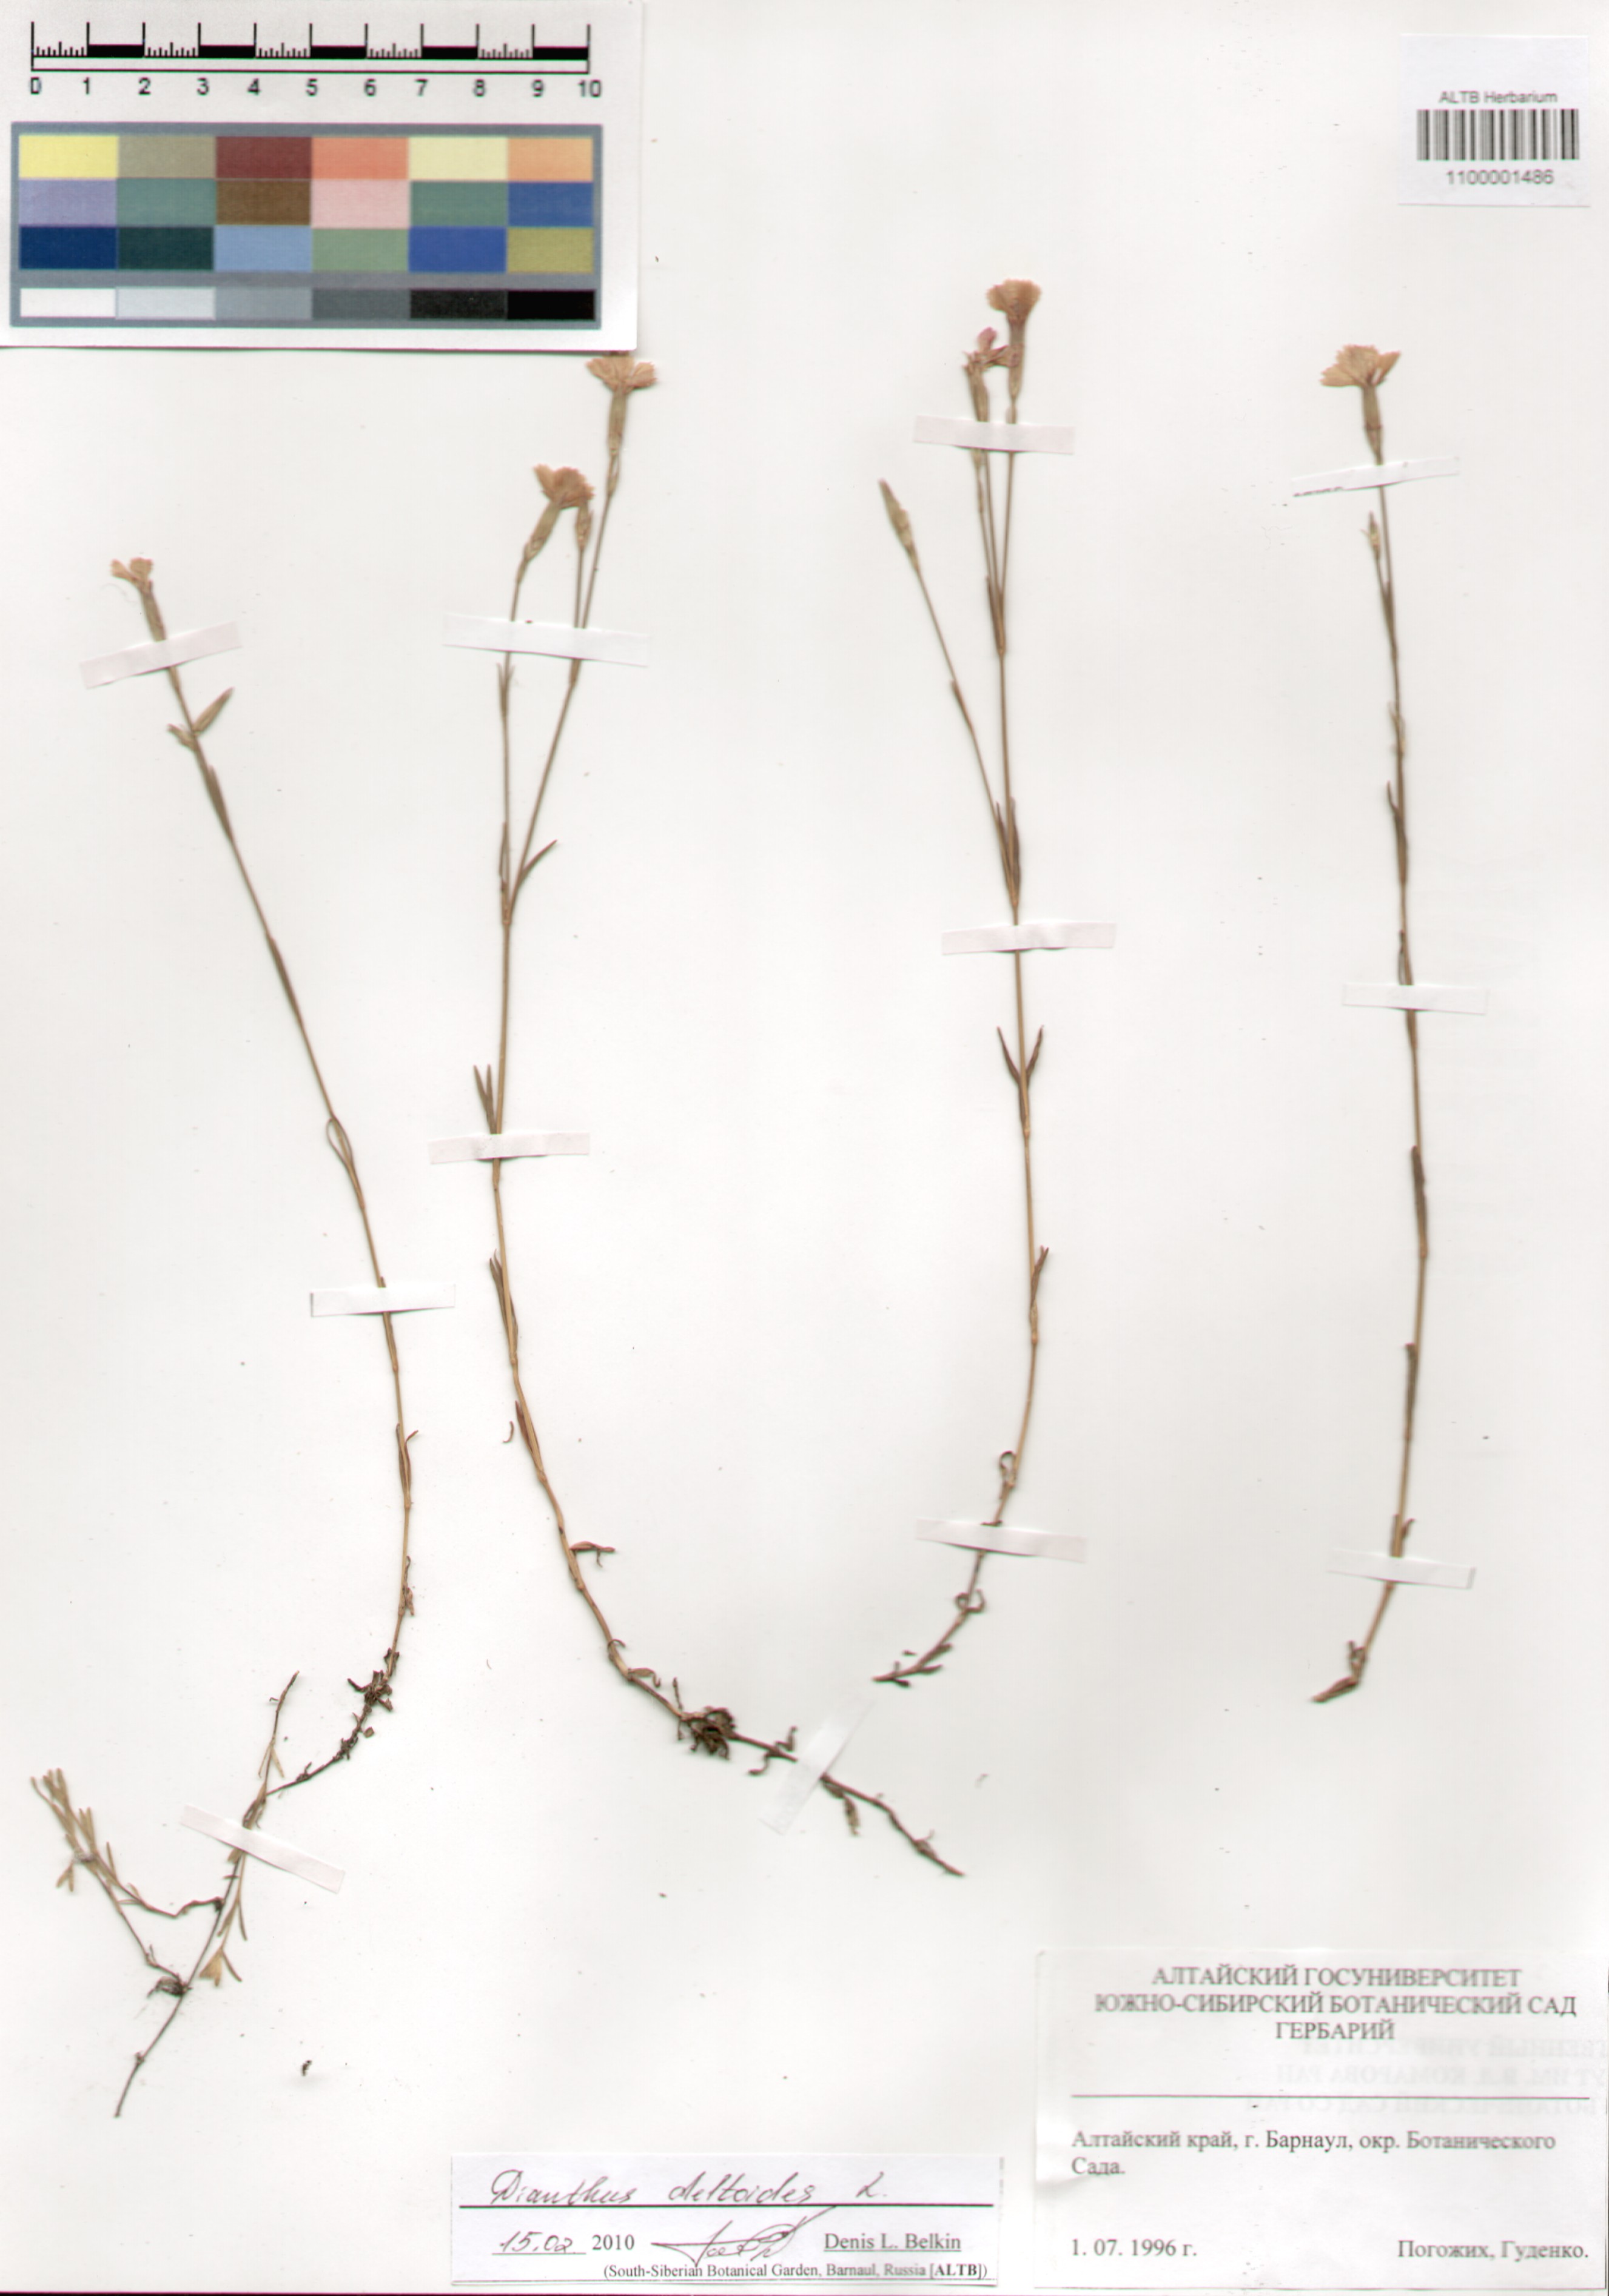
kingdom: Plantae
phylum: Tracheophyta
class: Magnoliopsida
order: Caryophyllales
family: Caryophyllaceae
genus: Dianthus
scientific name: Dianthus deltoides
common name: Maiden pink
